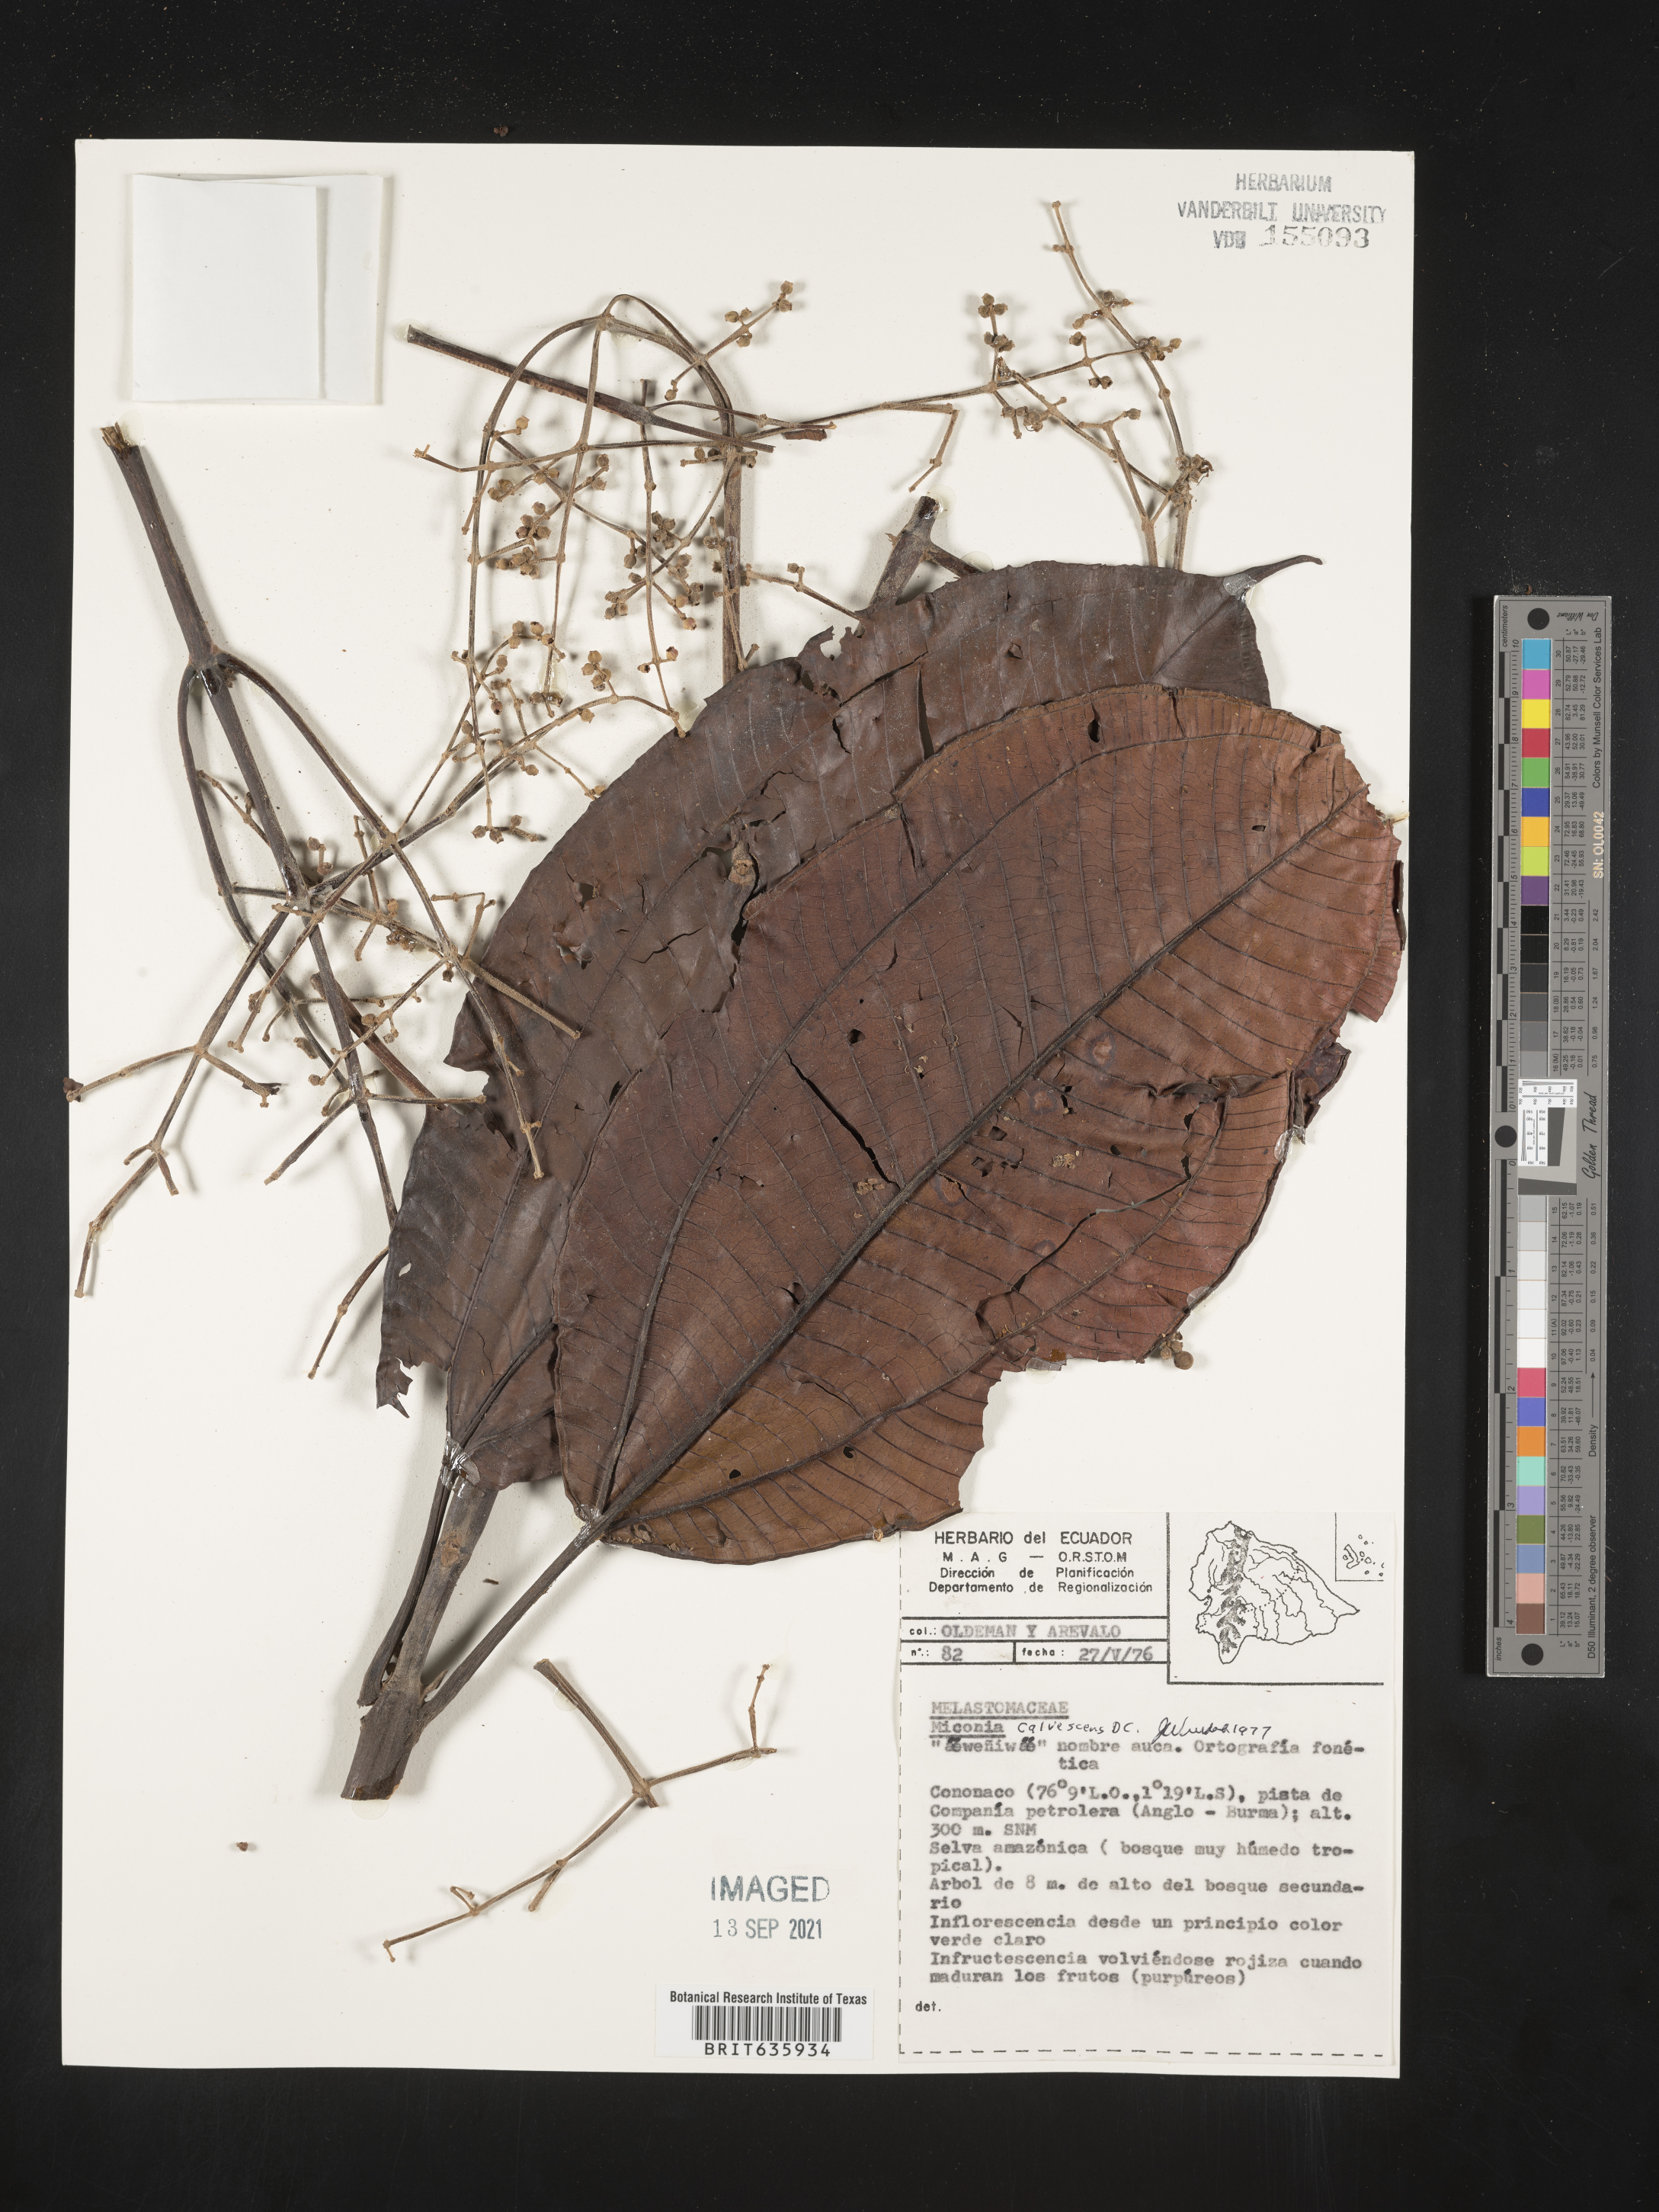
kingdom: Plantae
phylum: Tracheophyta
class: Magnoliopsida
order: Myrtales
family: Melastomataceae
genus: Miconia
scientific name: Miconia
